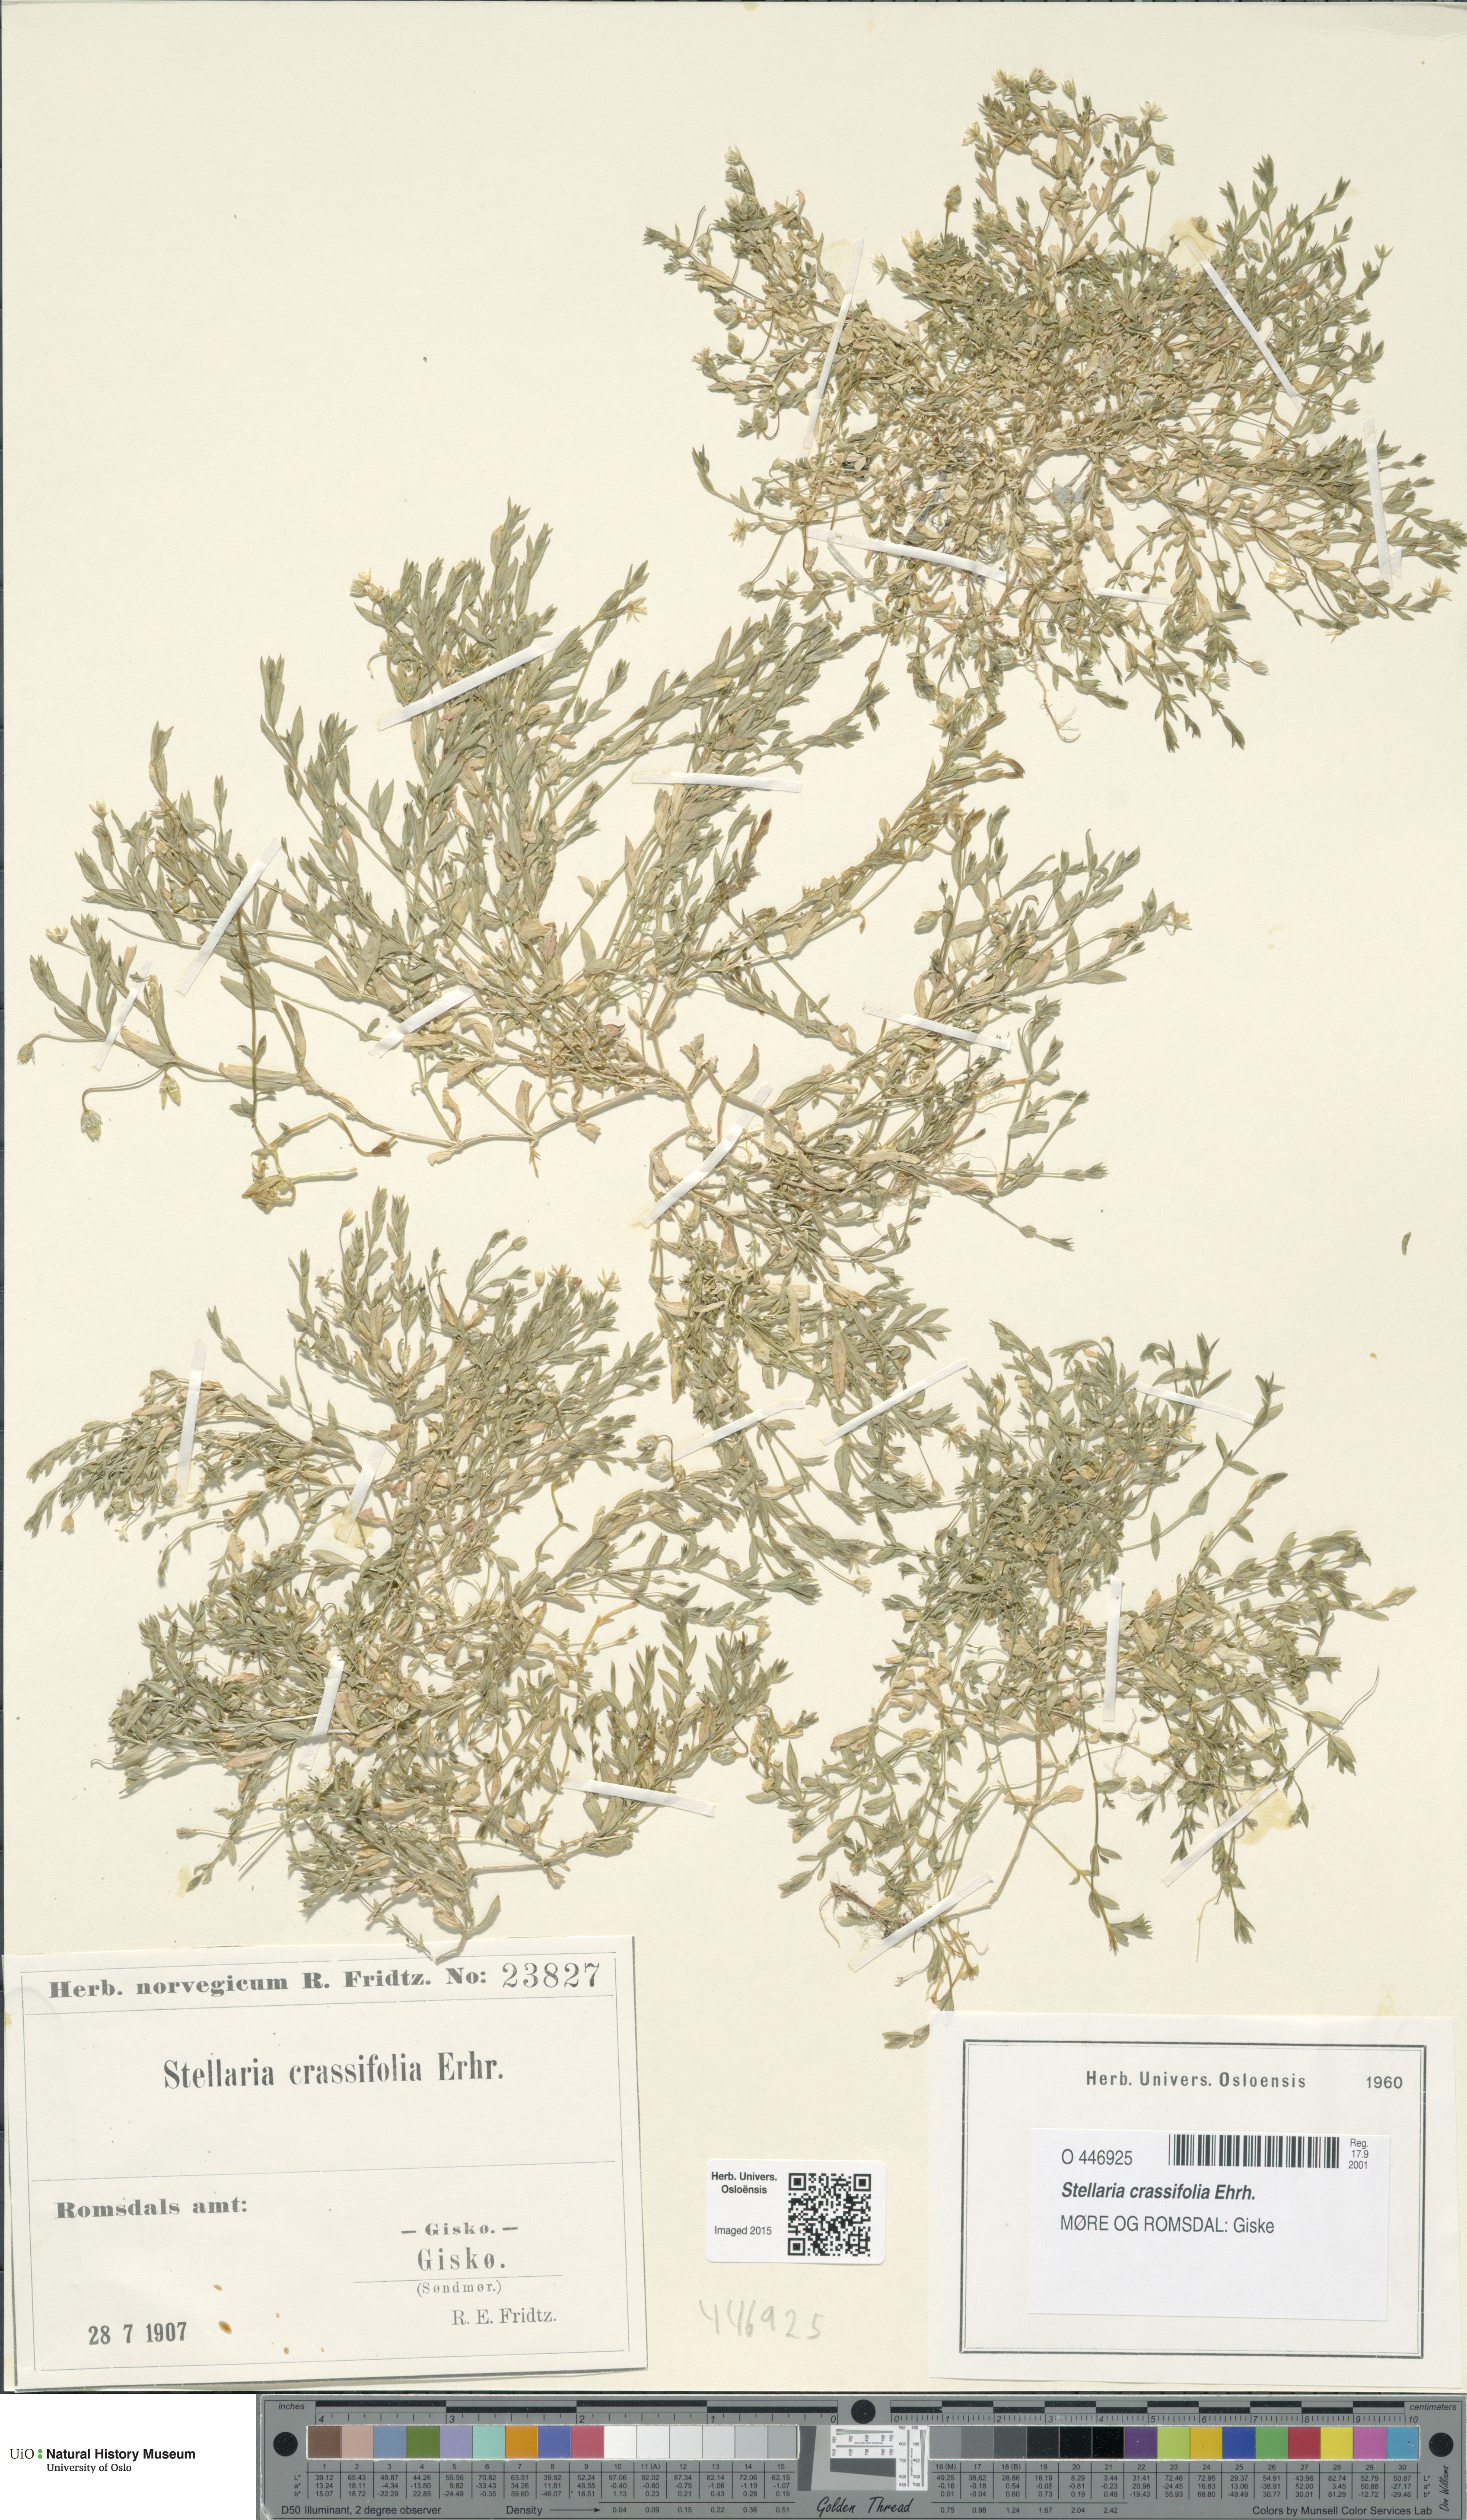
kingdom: Plantae
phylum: Tracheophyta
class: Magnoliopsida
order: Caryophyllales
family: Caryophyllaceae
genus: Stellaria
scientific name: Stellaria crassifolia
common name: Fleshy starwort
